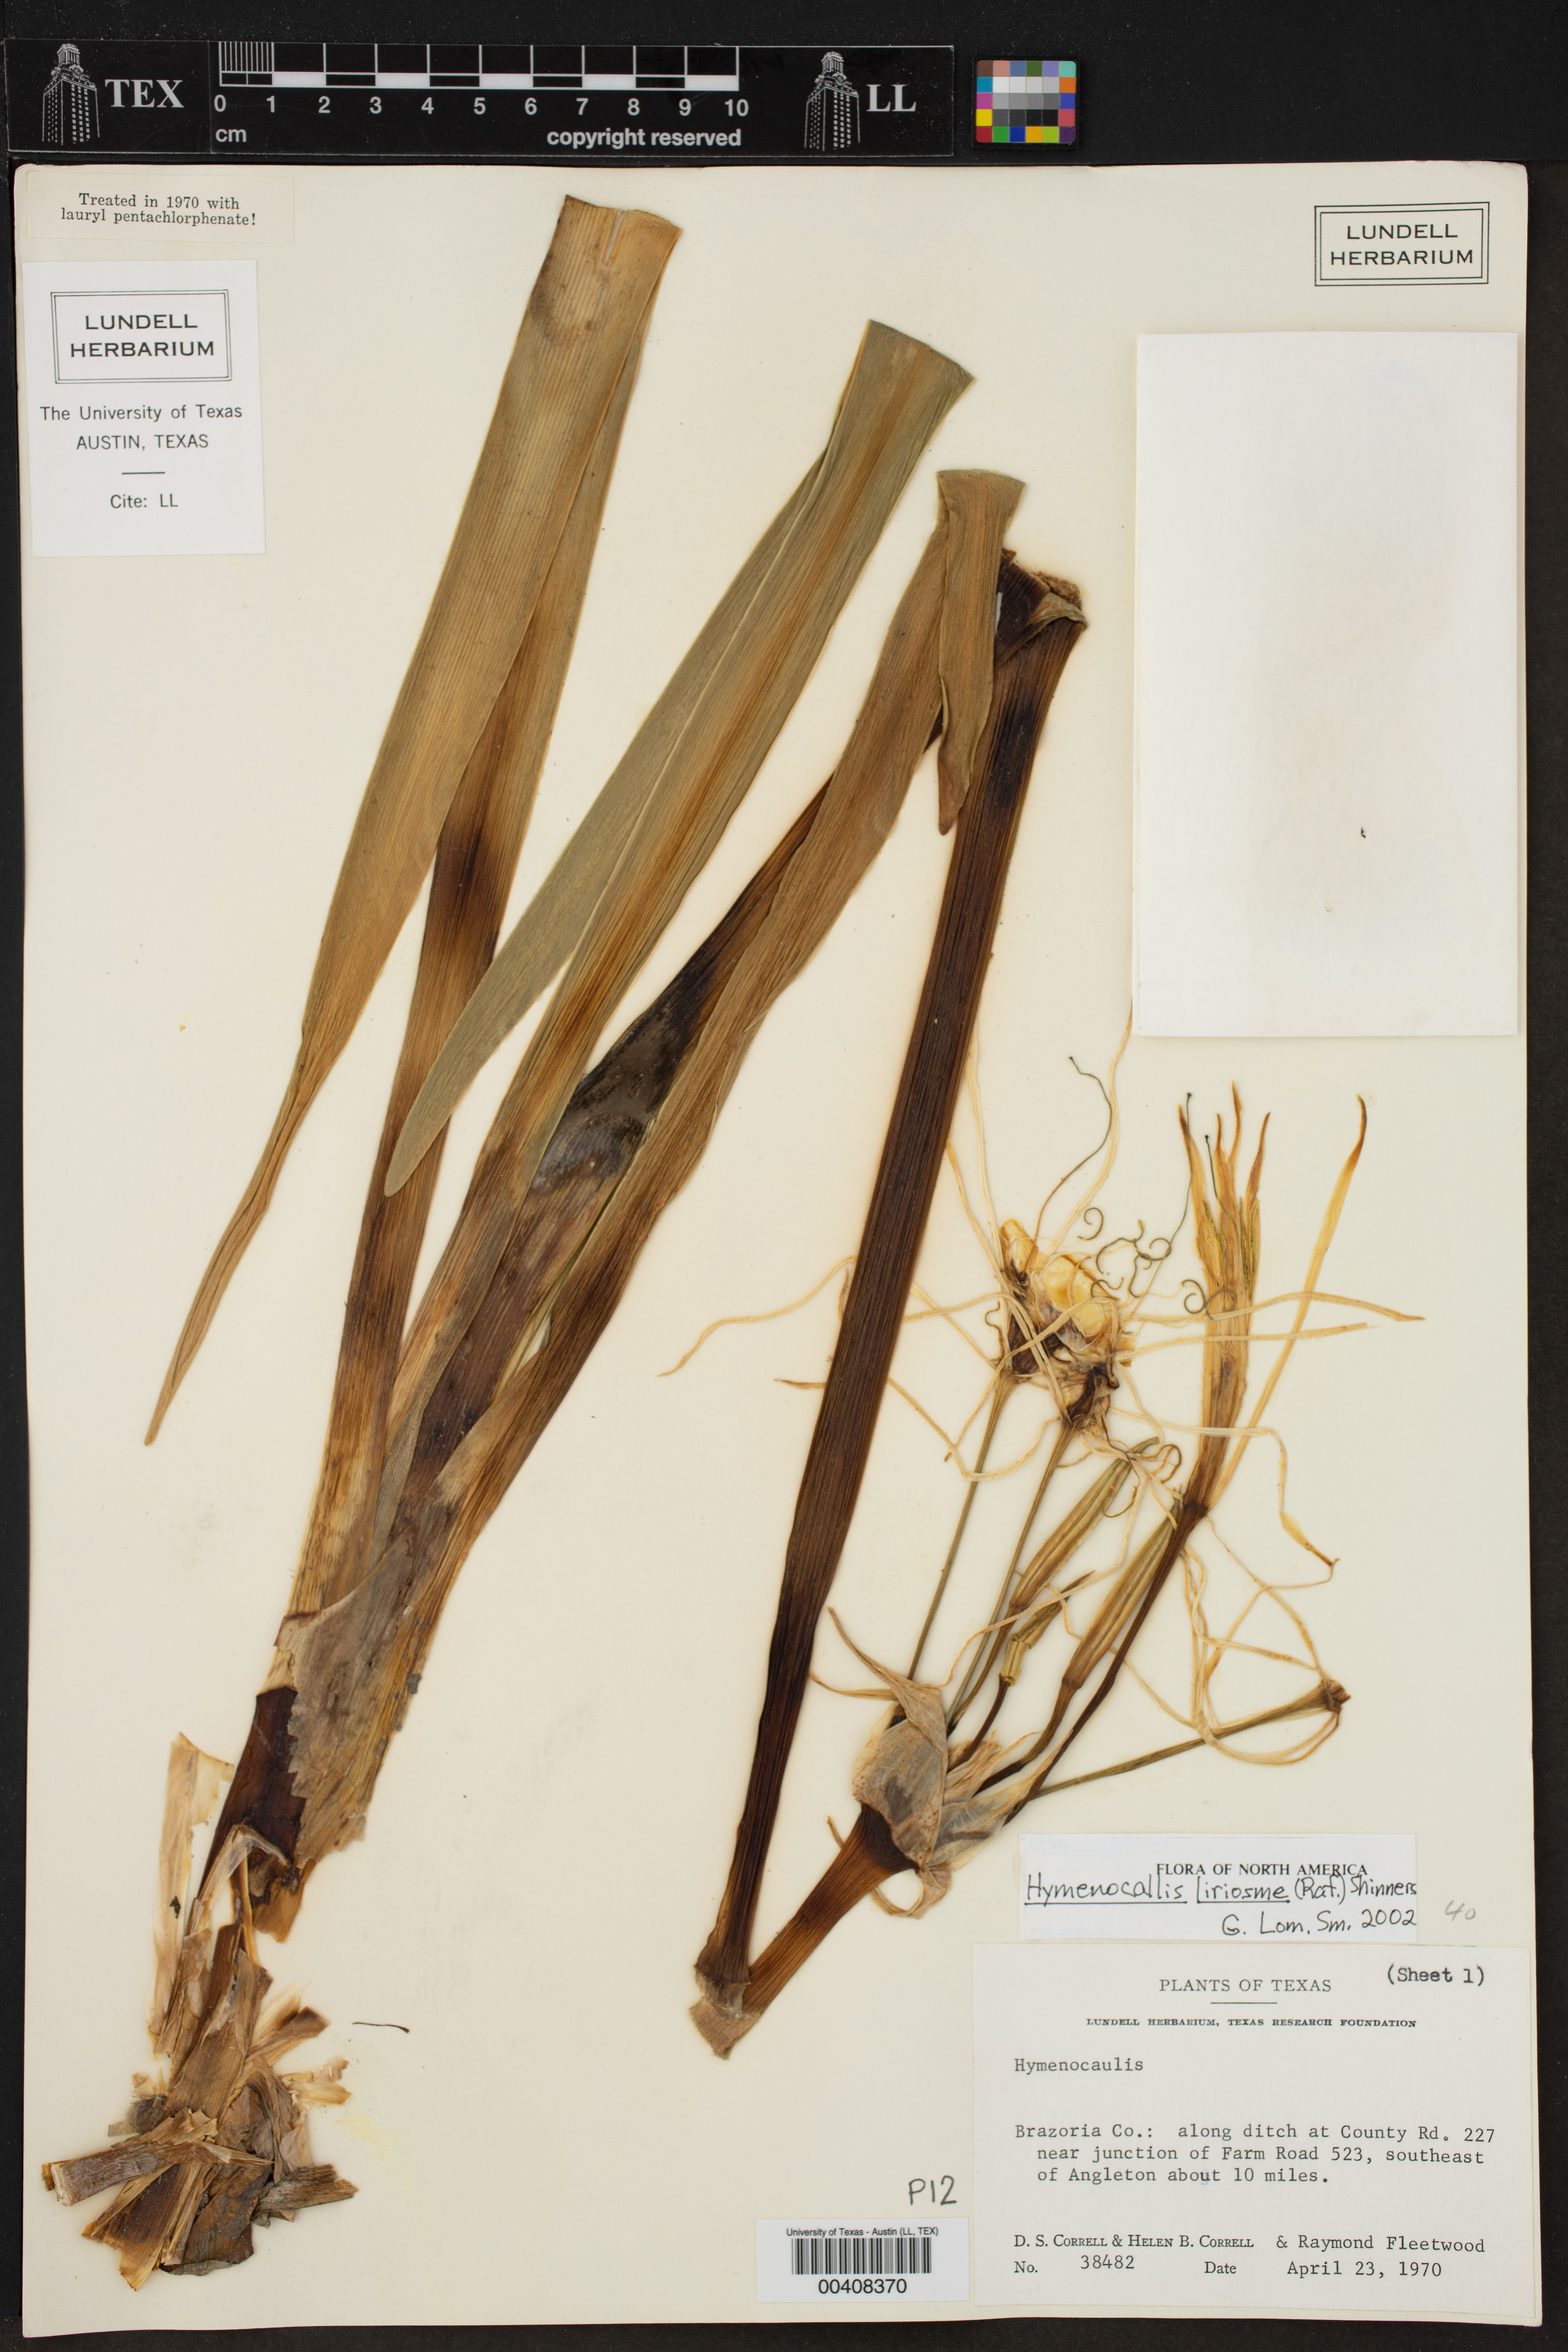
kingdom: Plantae
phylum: Tracheophyta
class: Liliopsida
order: Asparagales
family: Amaryllidaceae
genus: Hymenocallis
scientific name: Hymenocallis liriosme
